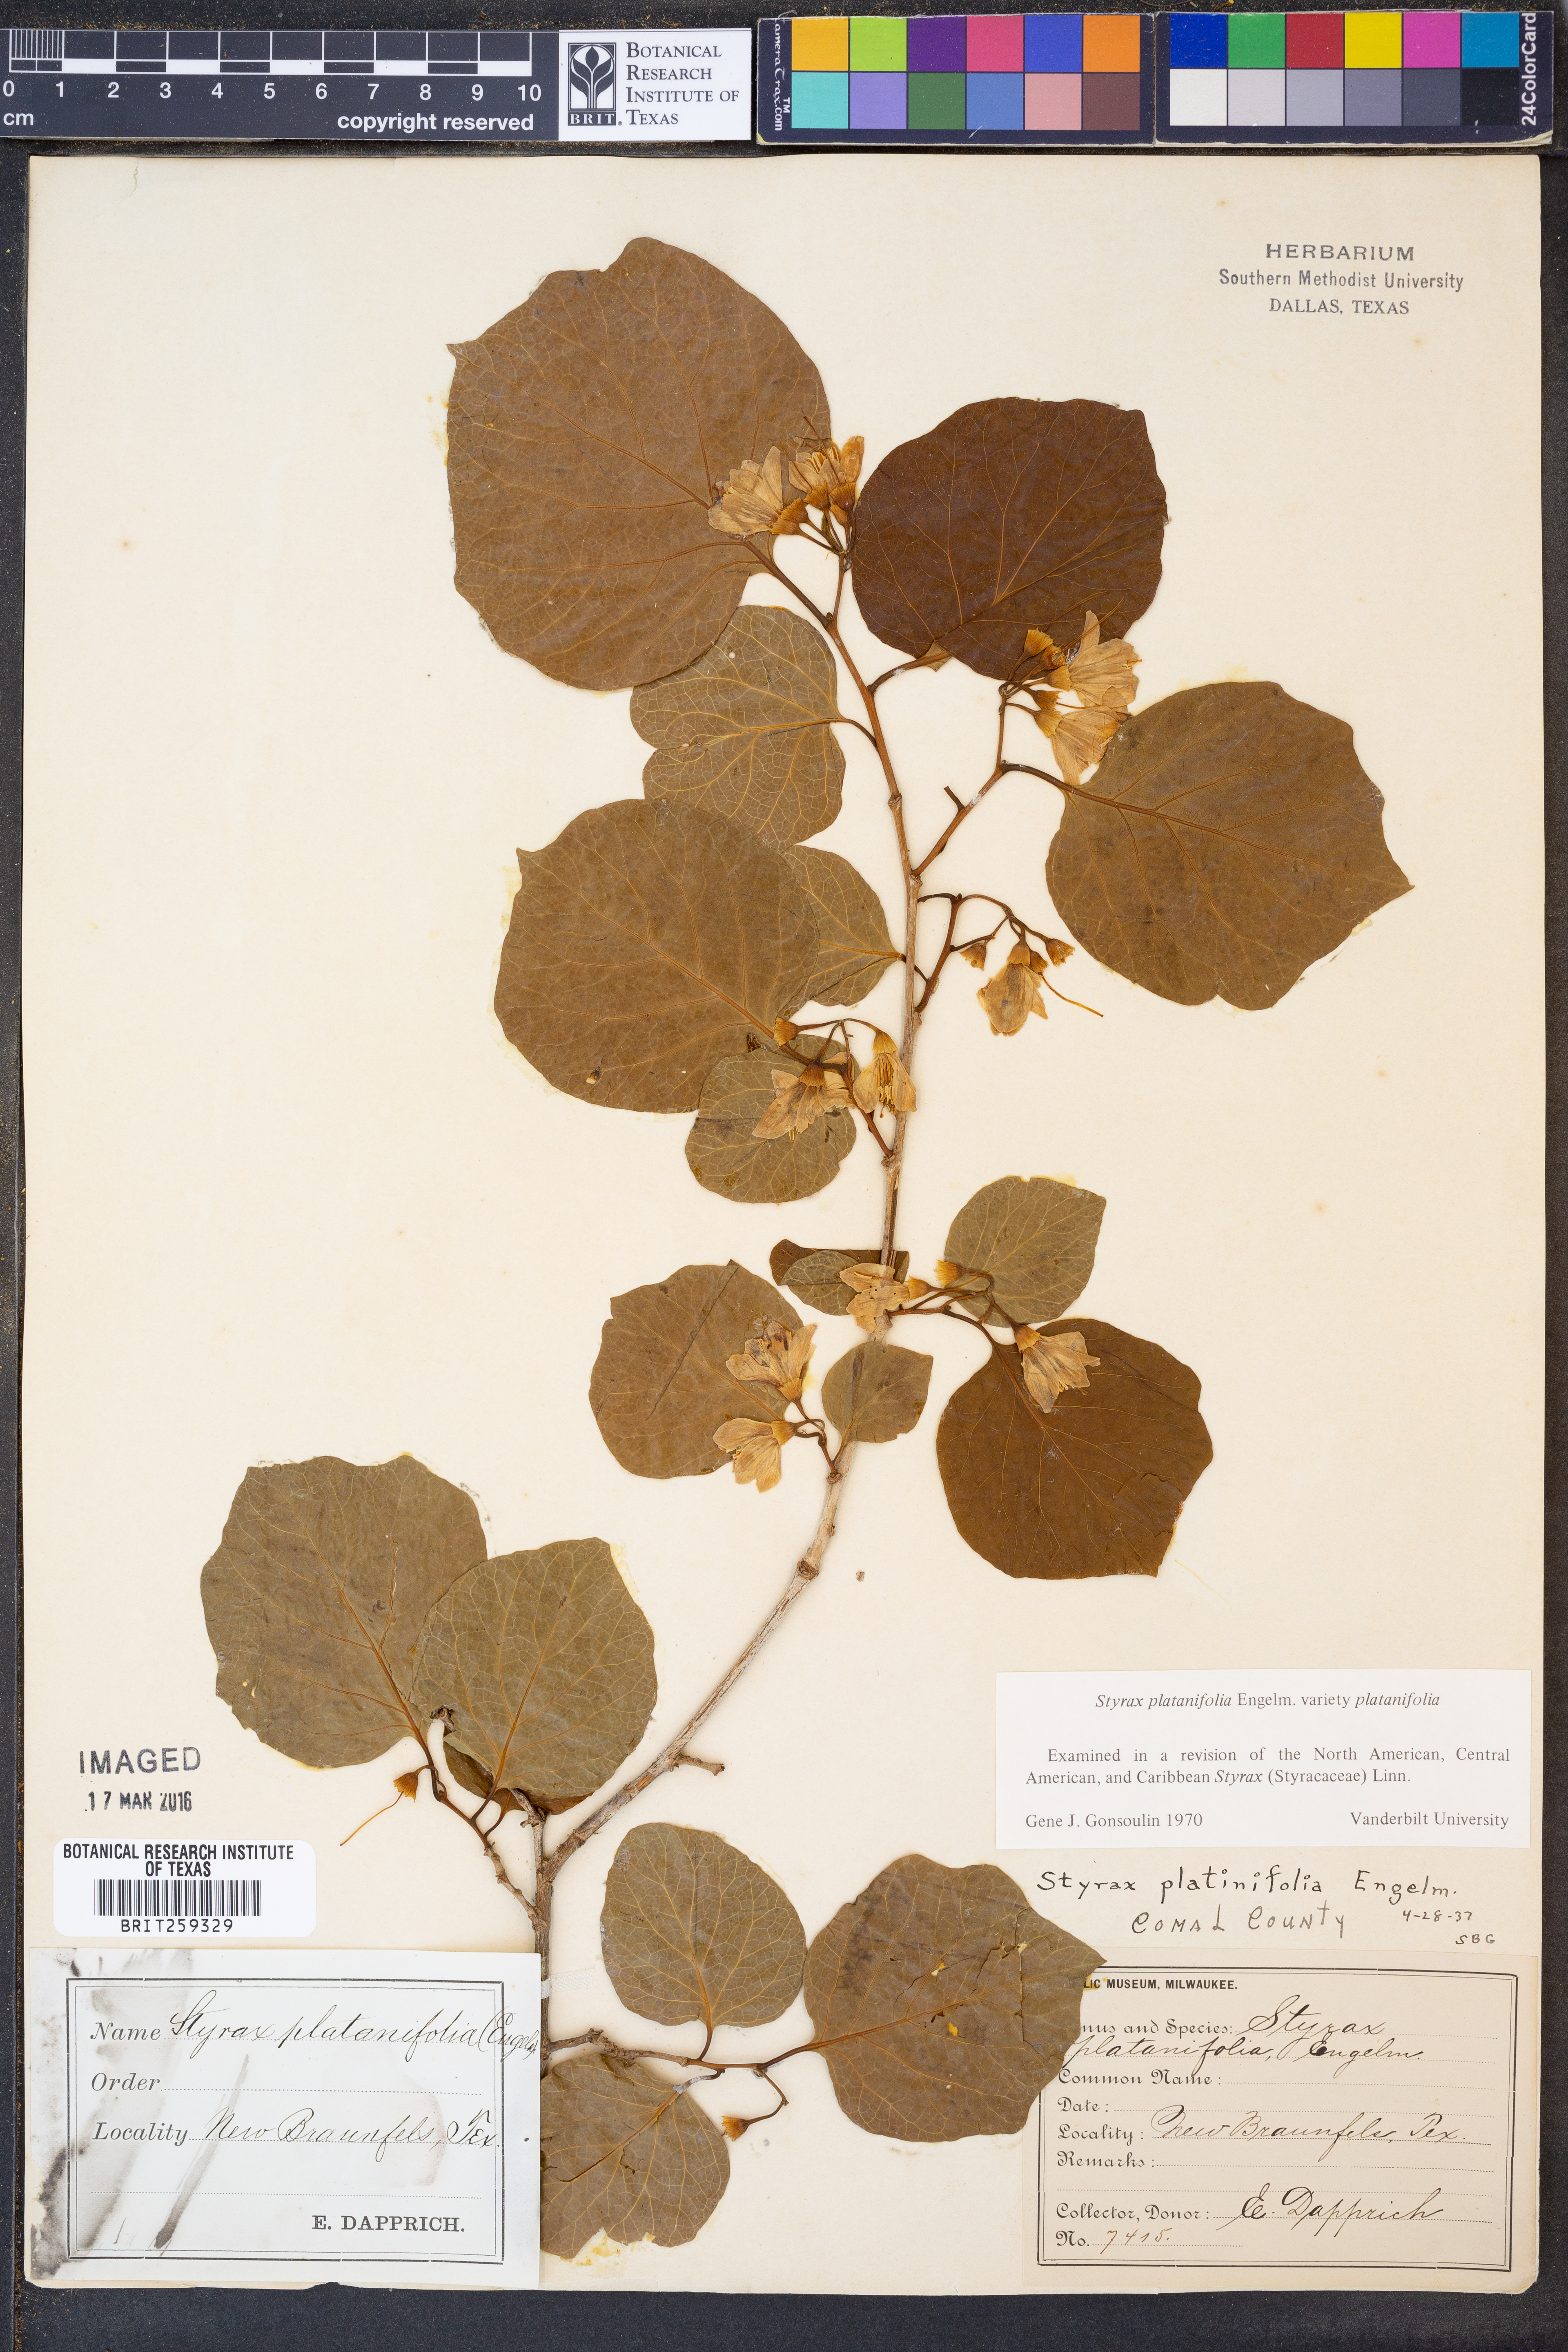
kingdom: Plantae
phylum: Tracheophyta
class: Magnoliopsida
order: Ericales
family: Styracaceae
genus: Styrax
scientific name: Styrax platanifolius
